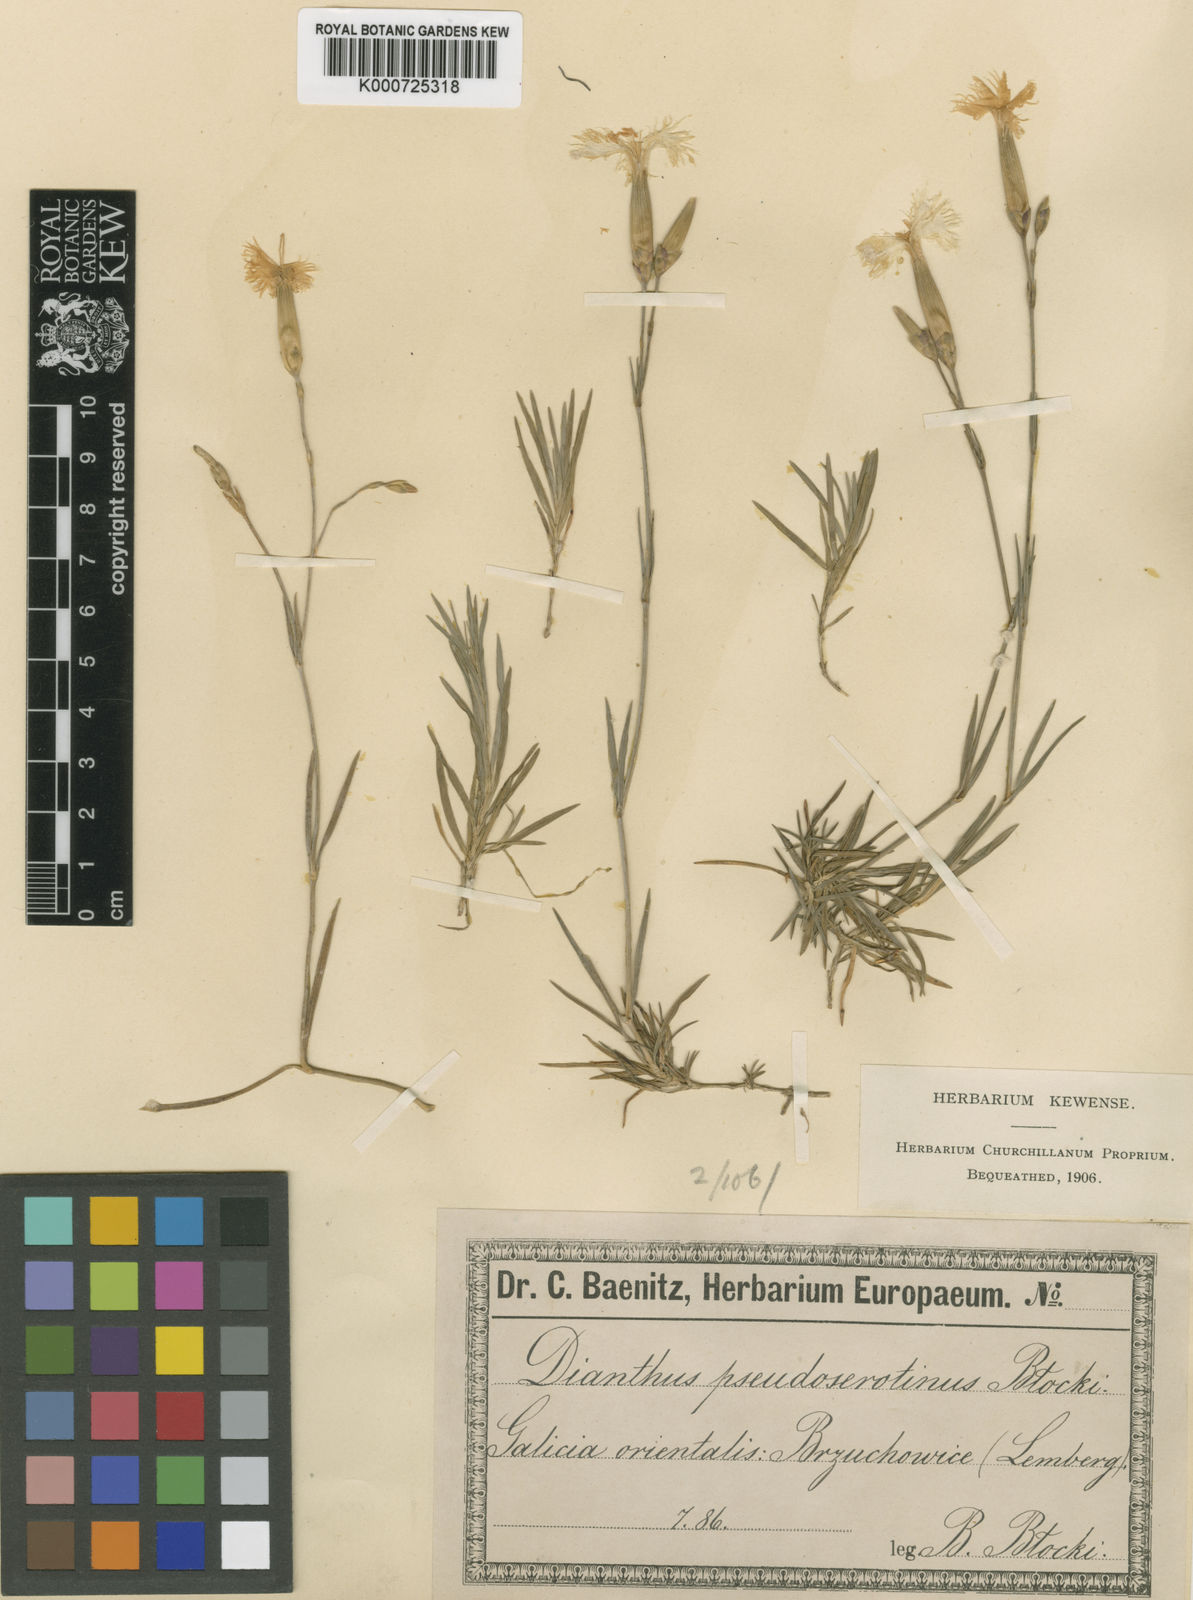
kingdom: Plantae
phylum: Tracheophyta
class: Magnoliopsida
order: Caryophyllales
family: Caryophyllaceae
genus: Dianthus
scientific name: Dianthus arenarius
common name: Stone pink
